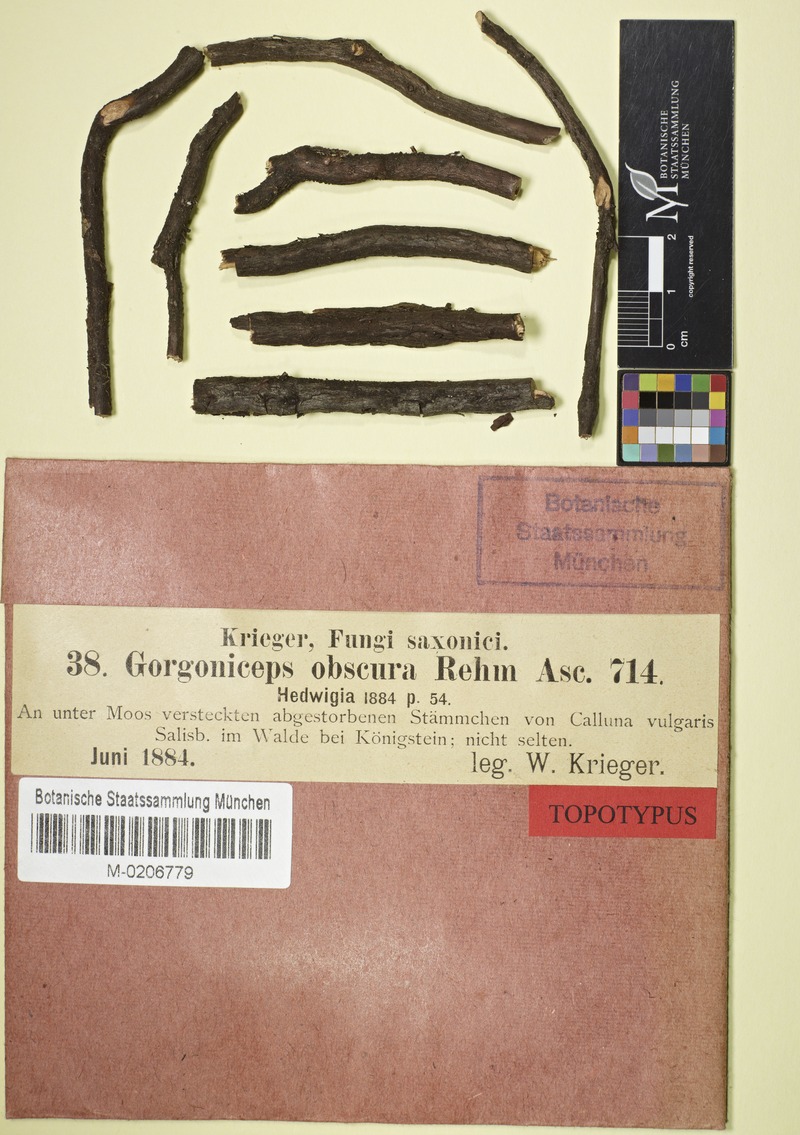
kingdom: Fungi
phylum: Ascomycota
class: Leotiomycetes
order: Helotiales
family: Mollisiaceae
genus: Mollisia
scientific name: Mollisia obscura
